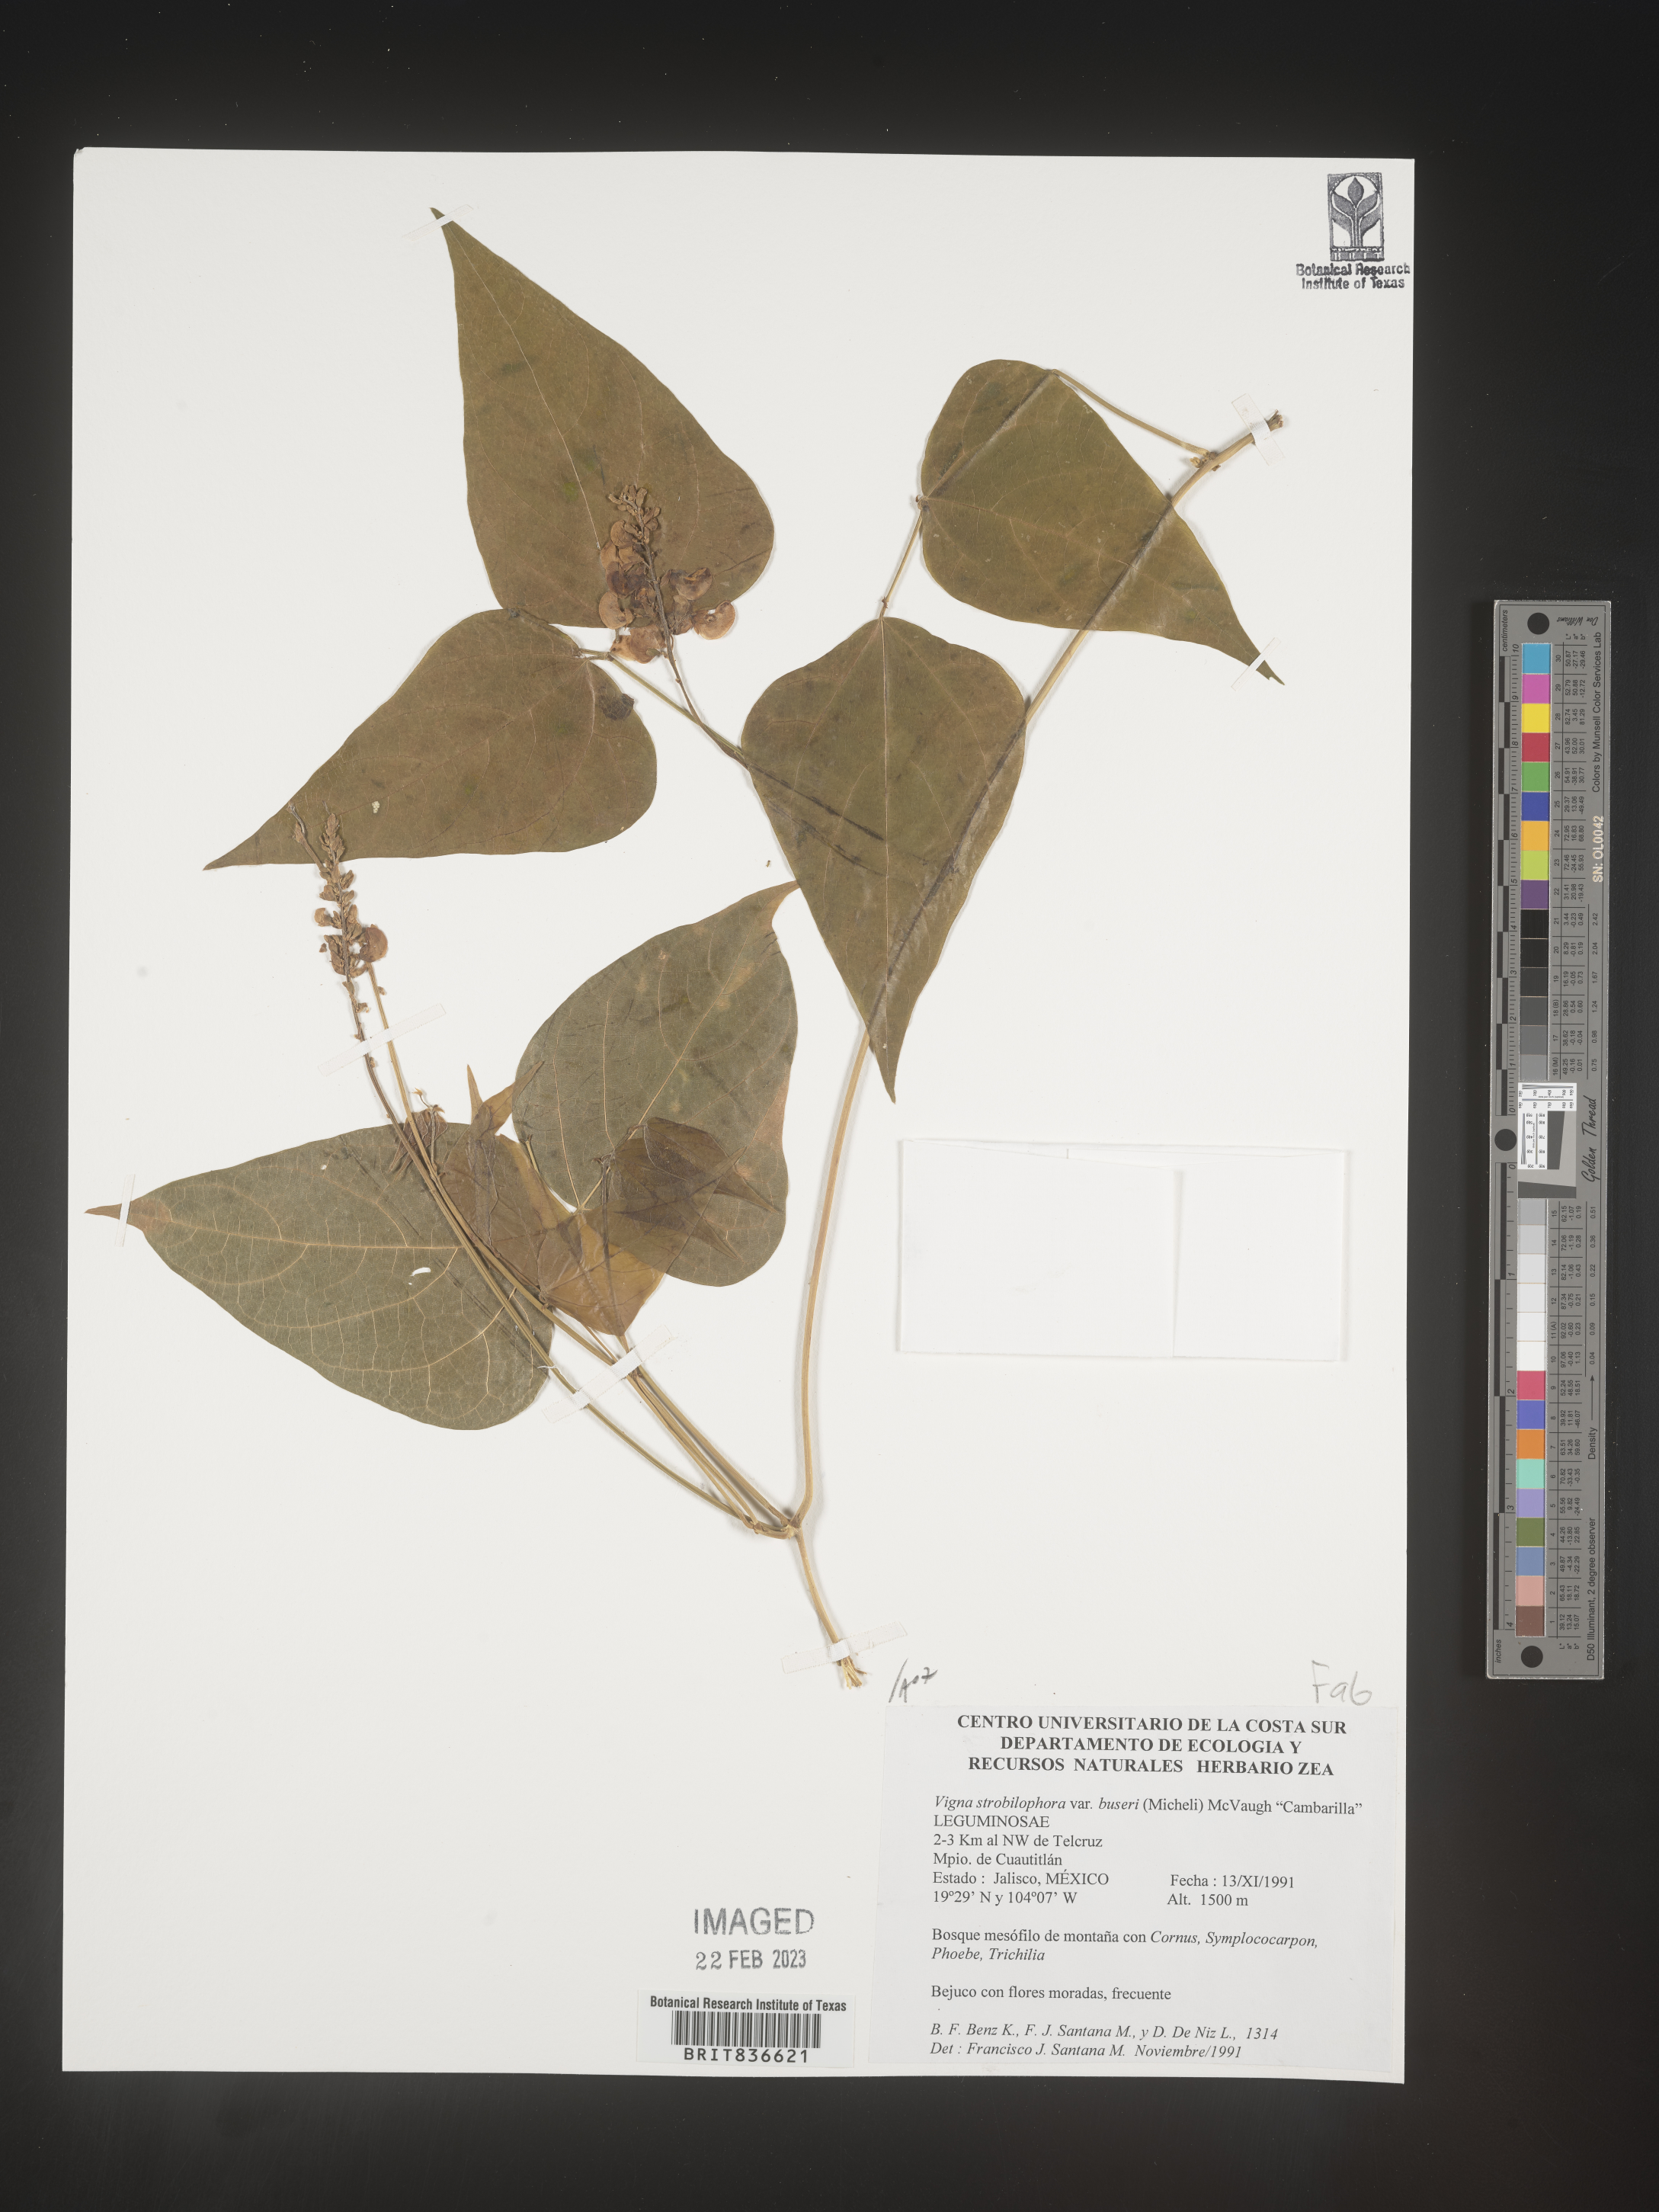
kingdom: Plantae
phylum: Tracheophyta
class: Magnoliopsida
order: Fabales
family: Fabaceae
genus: Vigna
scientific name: Vigna
